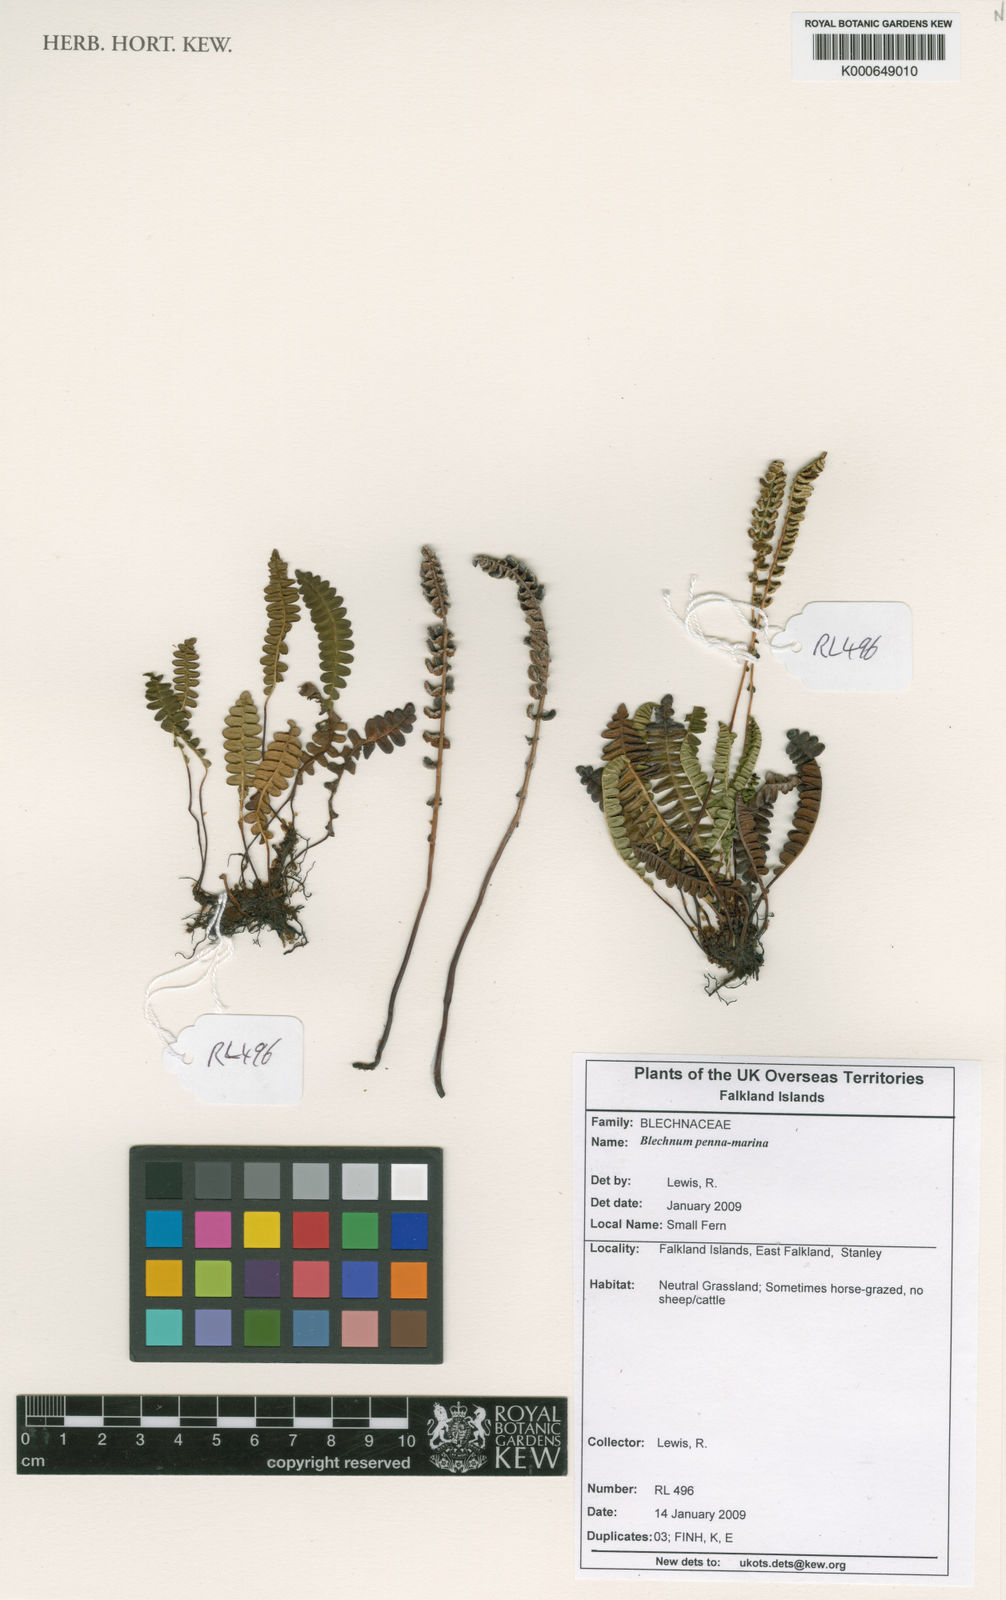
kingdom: Plantae
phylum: Tracheophyta
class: Polypodiopsida
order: Polypodiales
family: Blechnaceae
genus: Austroblechnum
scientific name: Austroblechnum penna-marina
